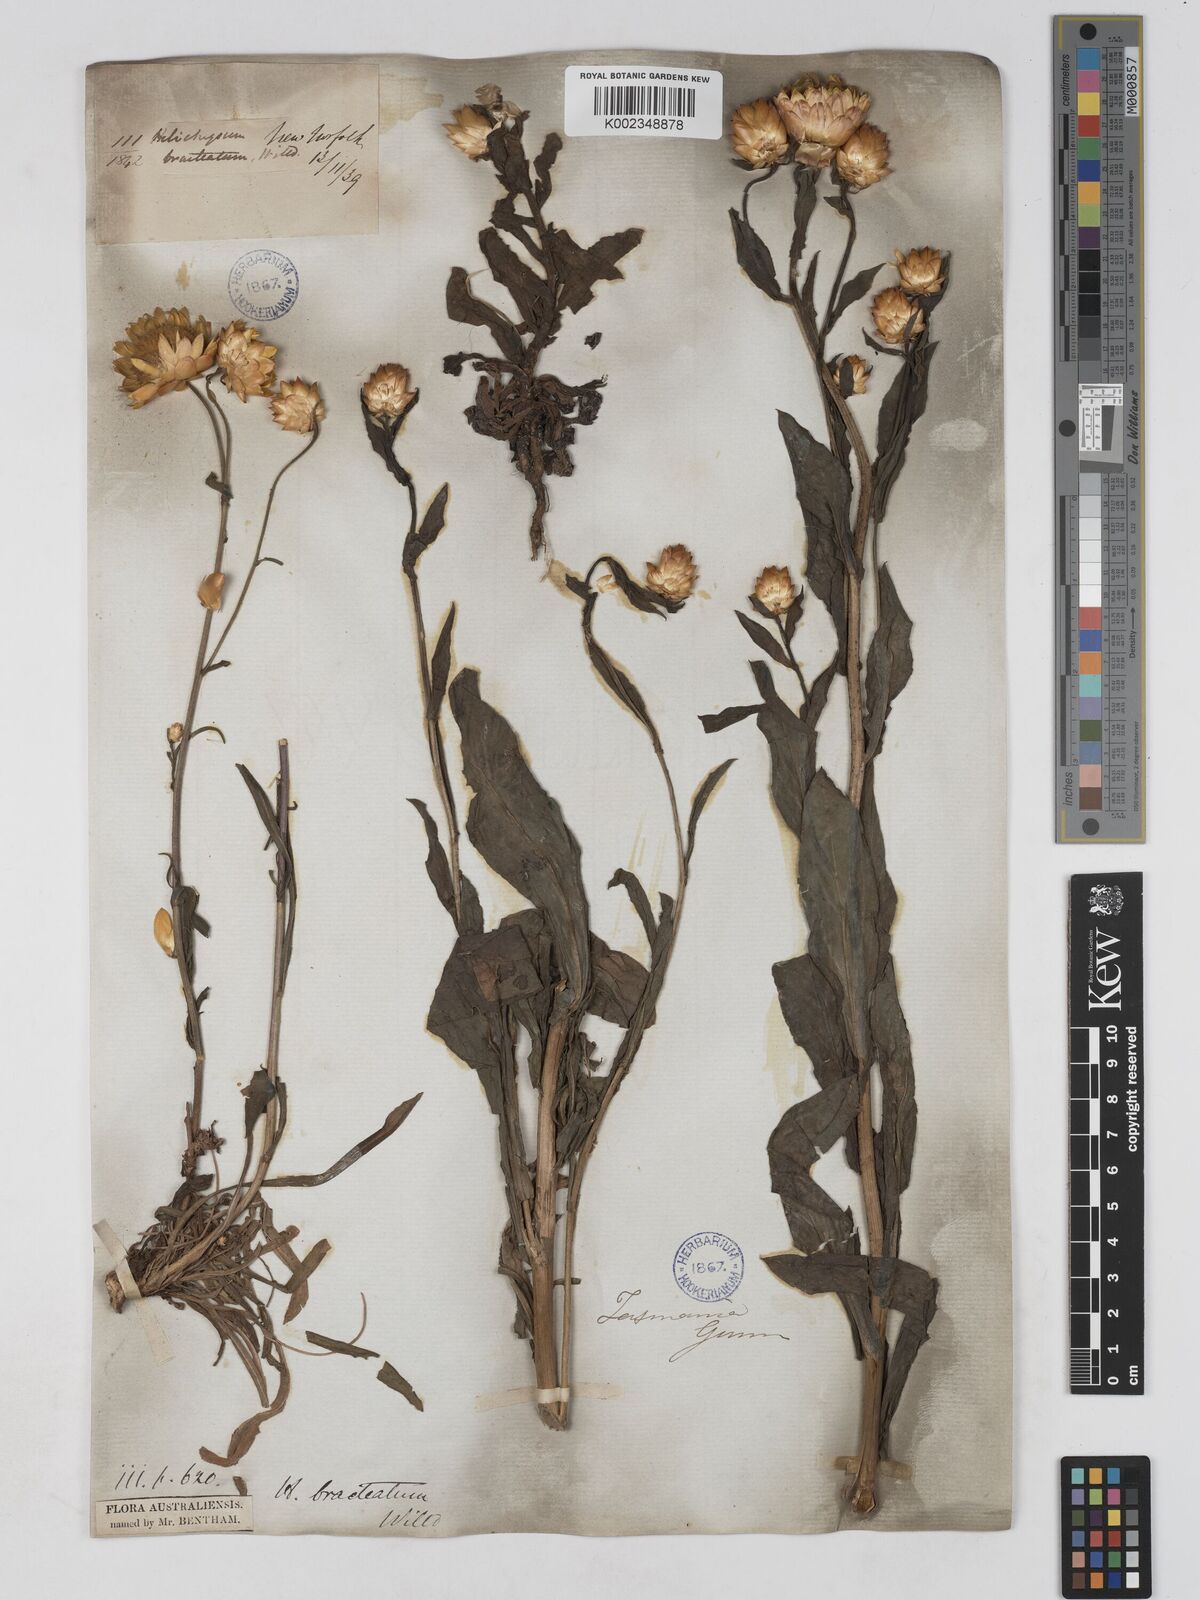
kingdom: Plantae
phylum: Tracheophyta
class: Magnoliopsida
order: Asterales
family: Asteraceae
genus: Xerochrysum
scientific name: Xerochrysum bracteatum
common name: Bracted strawflower
